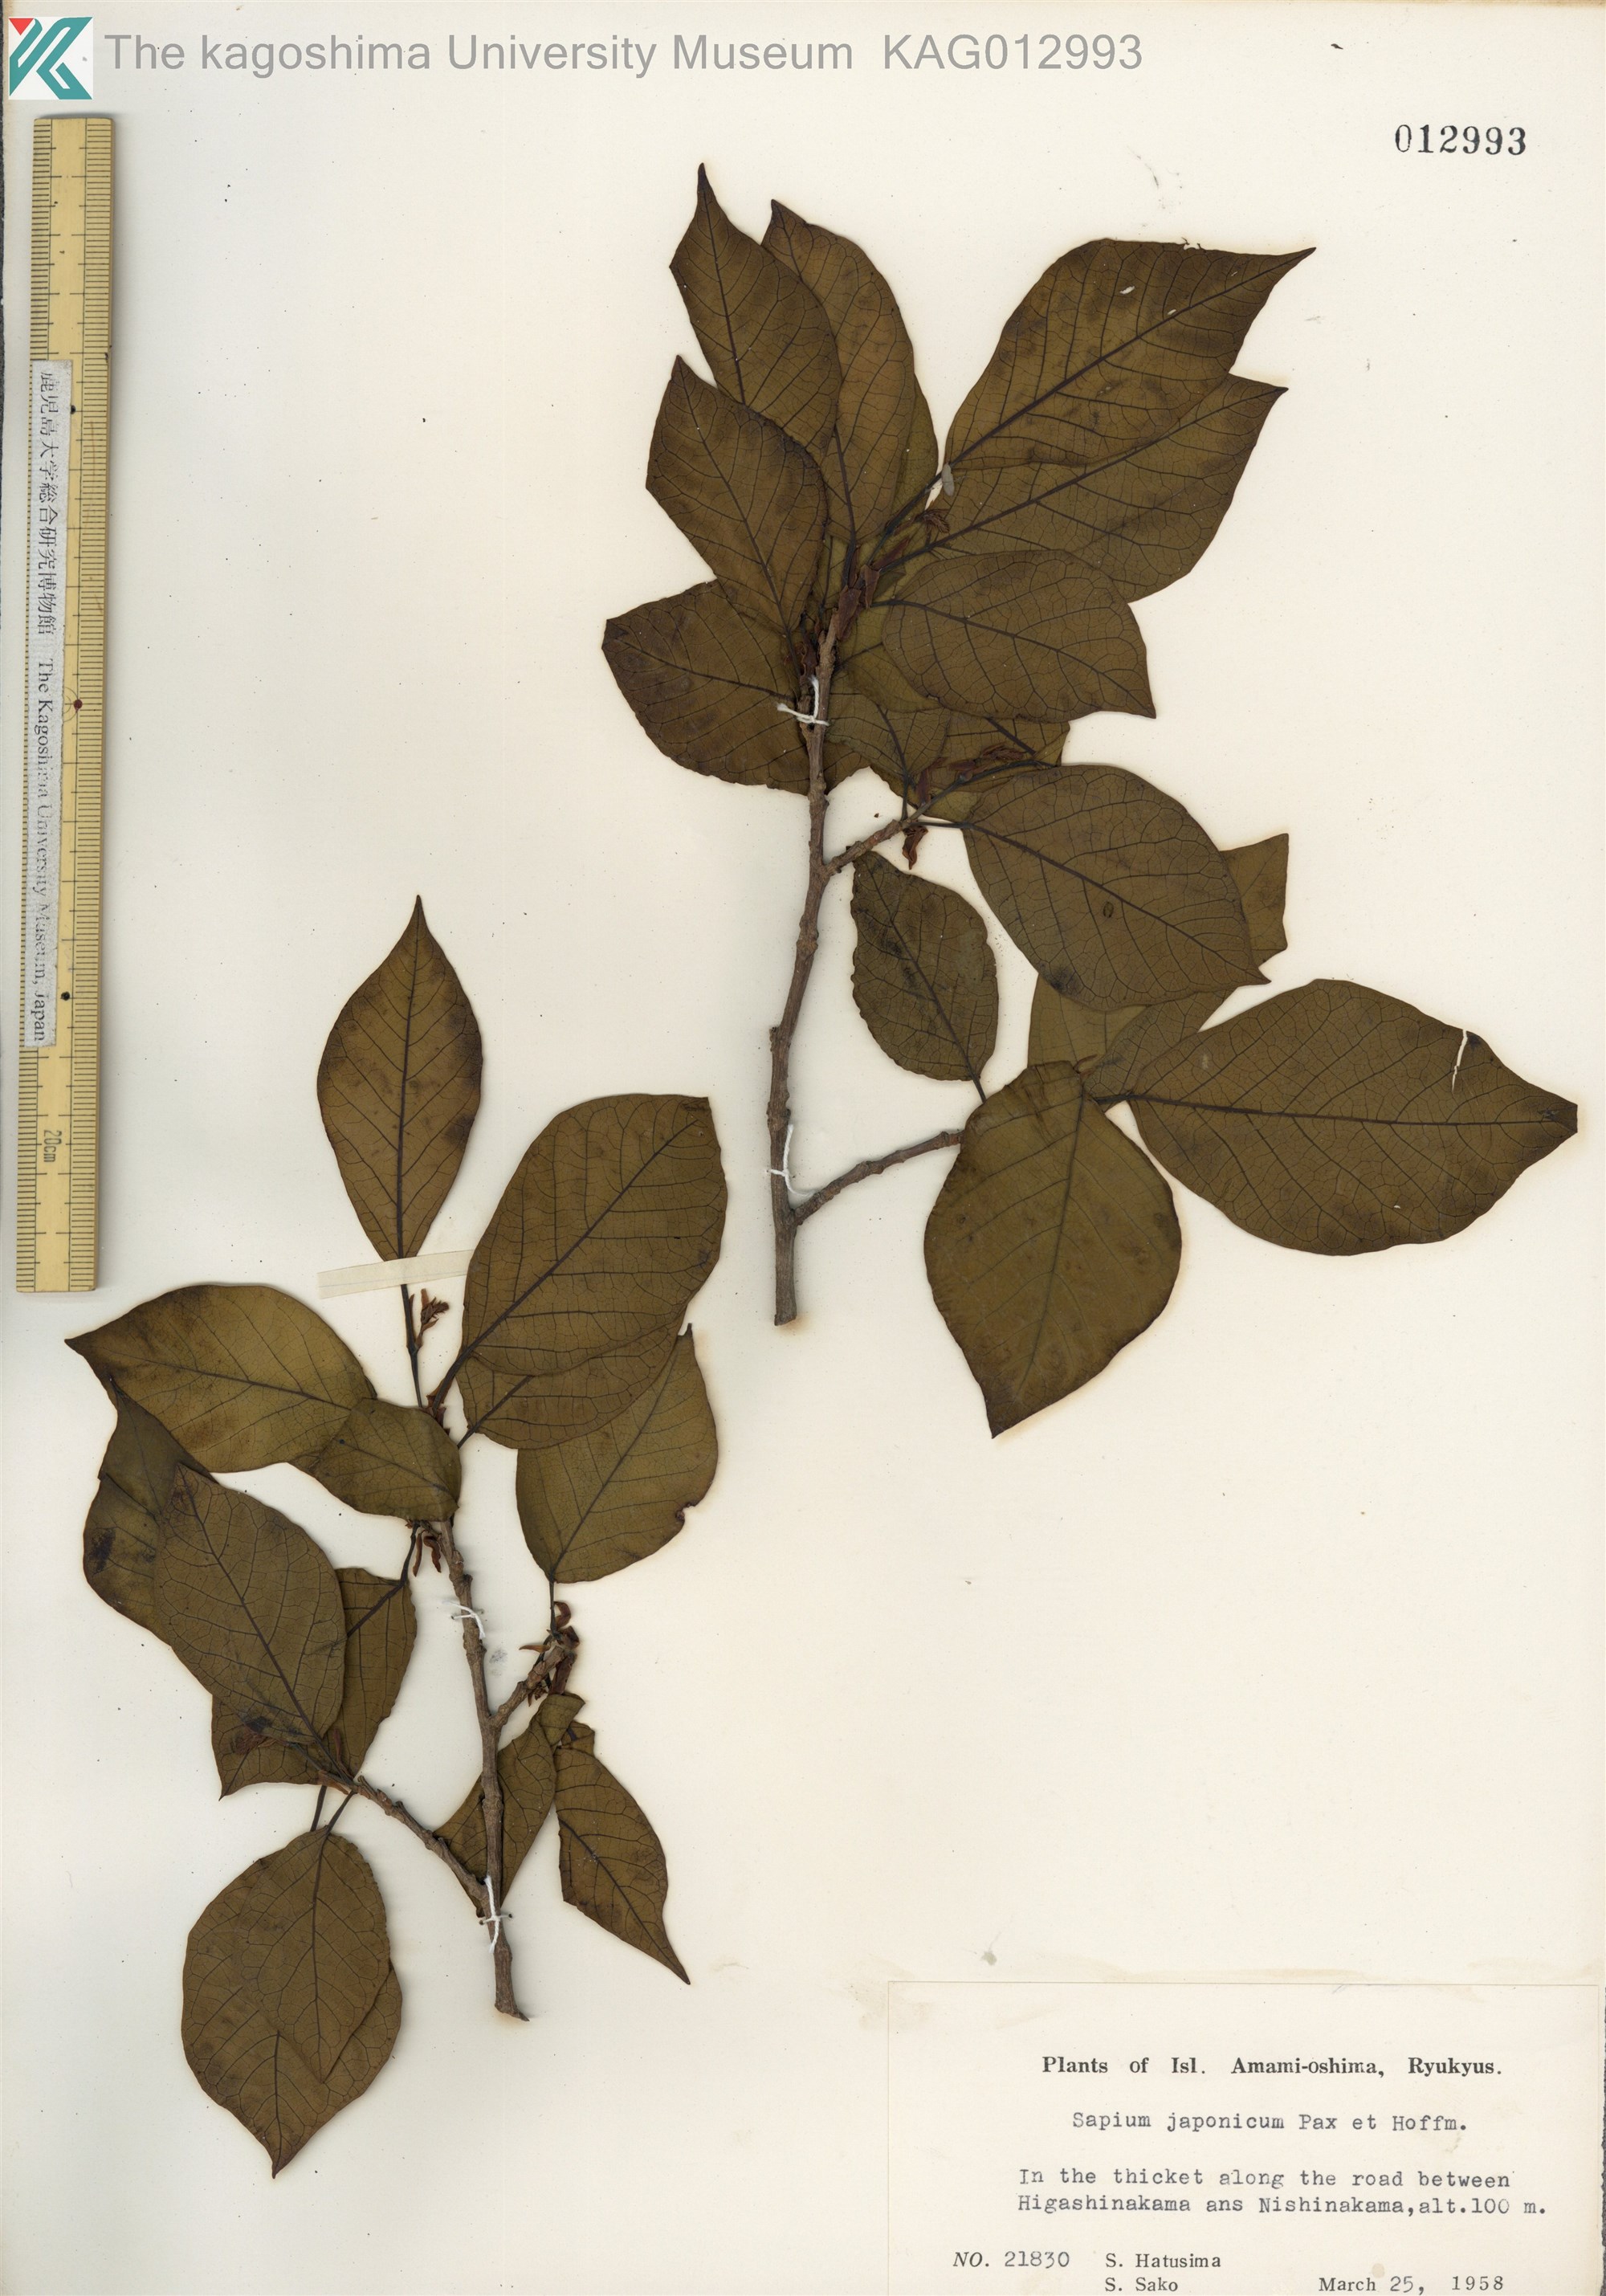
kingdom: Plantae
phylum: Tracheophyta
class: Magnoliopsida
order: Malpighiales
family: Euphorbiaceae
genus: Neoshirakia
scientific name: Neoshirakia japonica
